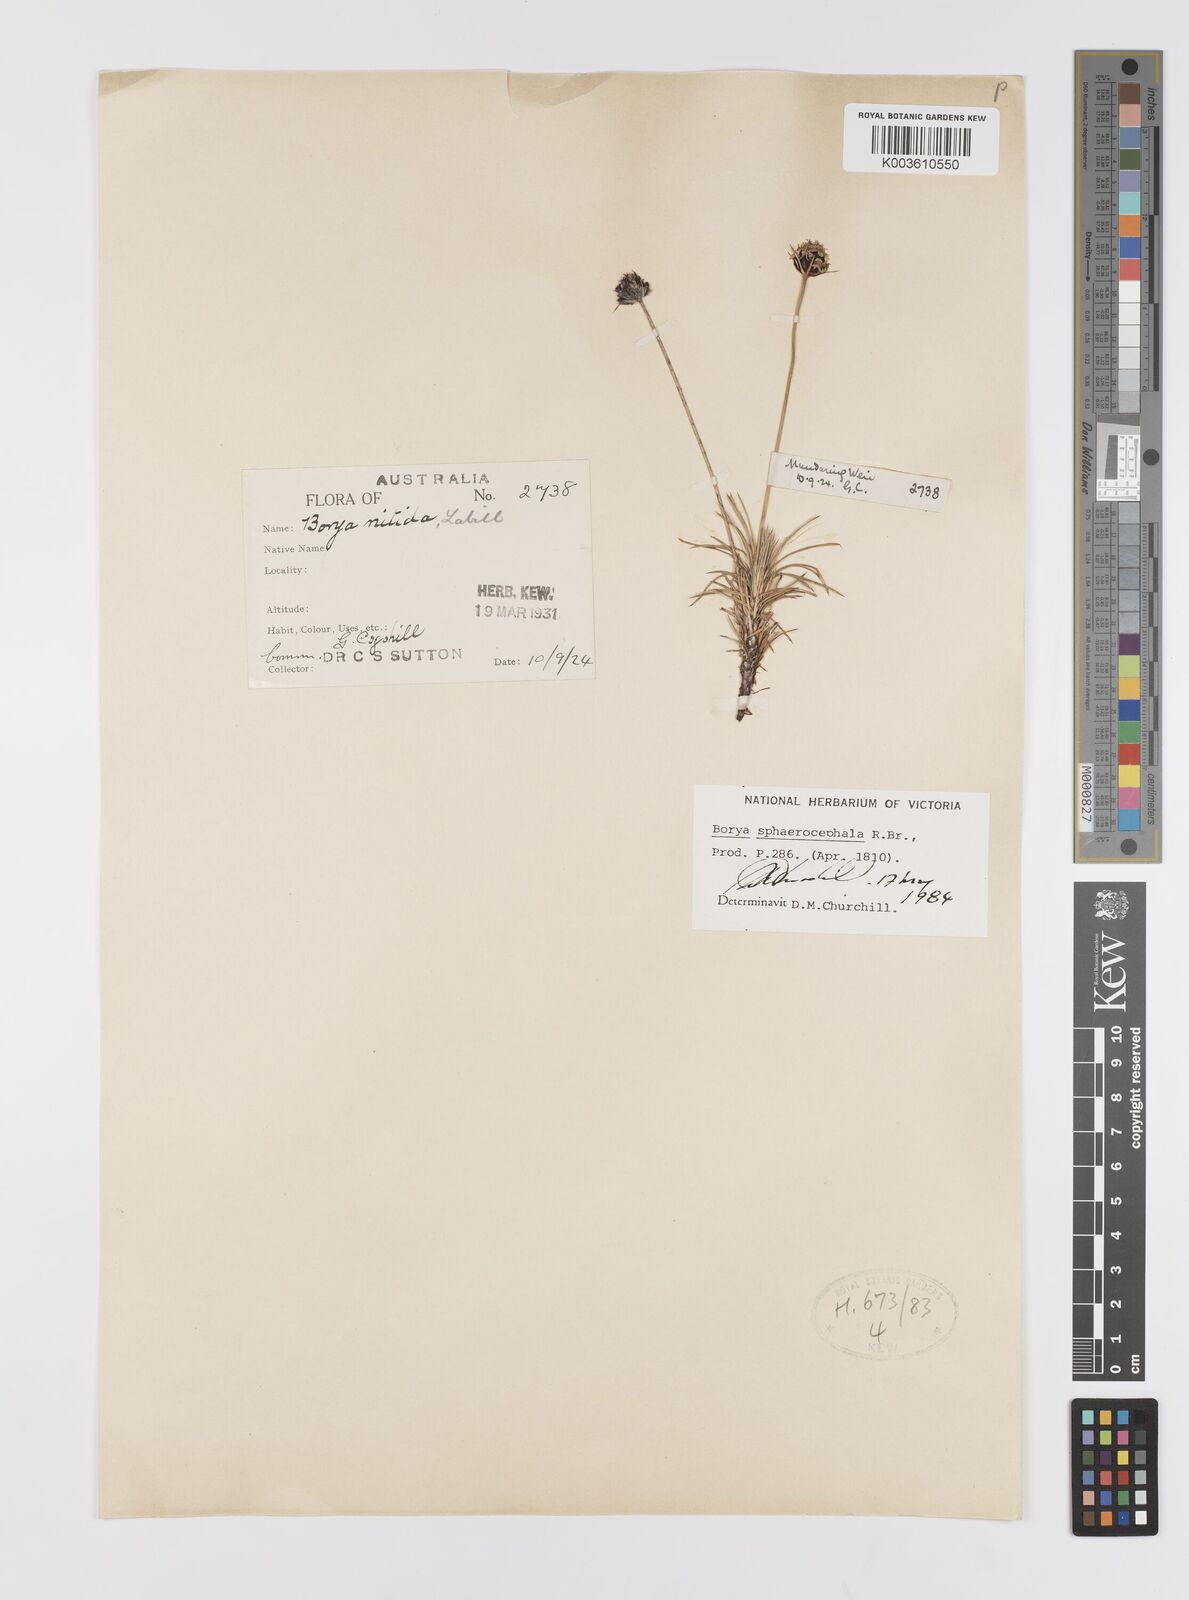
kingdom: Plantae
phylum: Tracheophyta
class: Liliopsida
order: Asparagales
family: Boryaceae
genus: Borya
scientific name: Borya sphaerocephala
